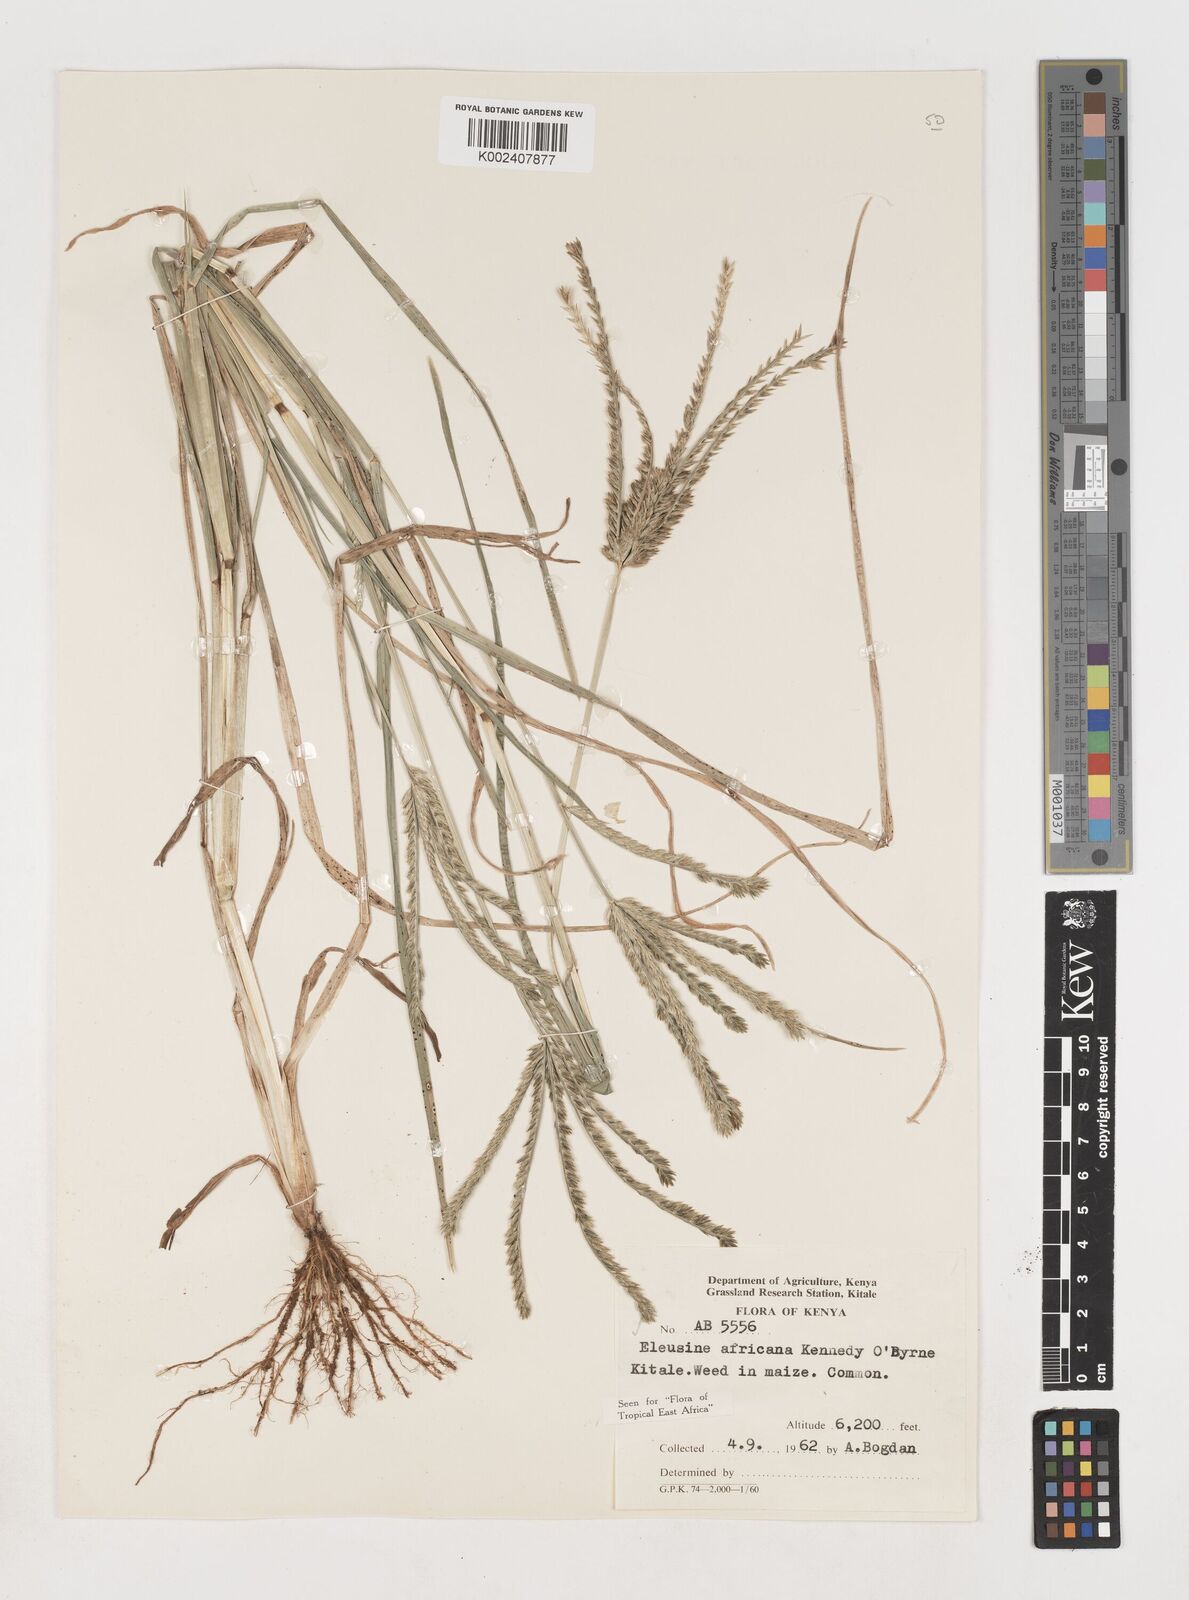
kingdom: Plantae
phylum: Tracheophyta
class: Liliopsida
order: Poales
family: Poaceae
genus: Eleusine
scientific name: Eleusine africana
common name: Wild african finger millet
